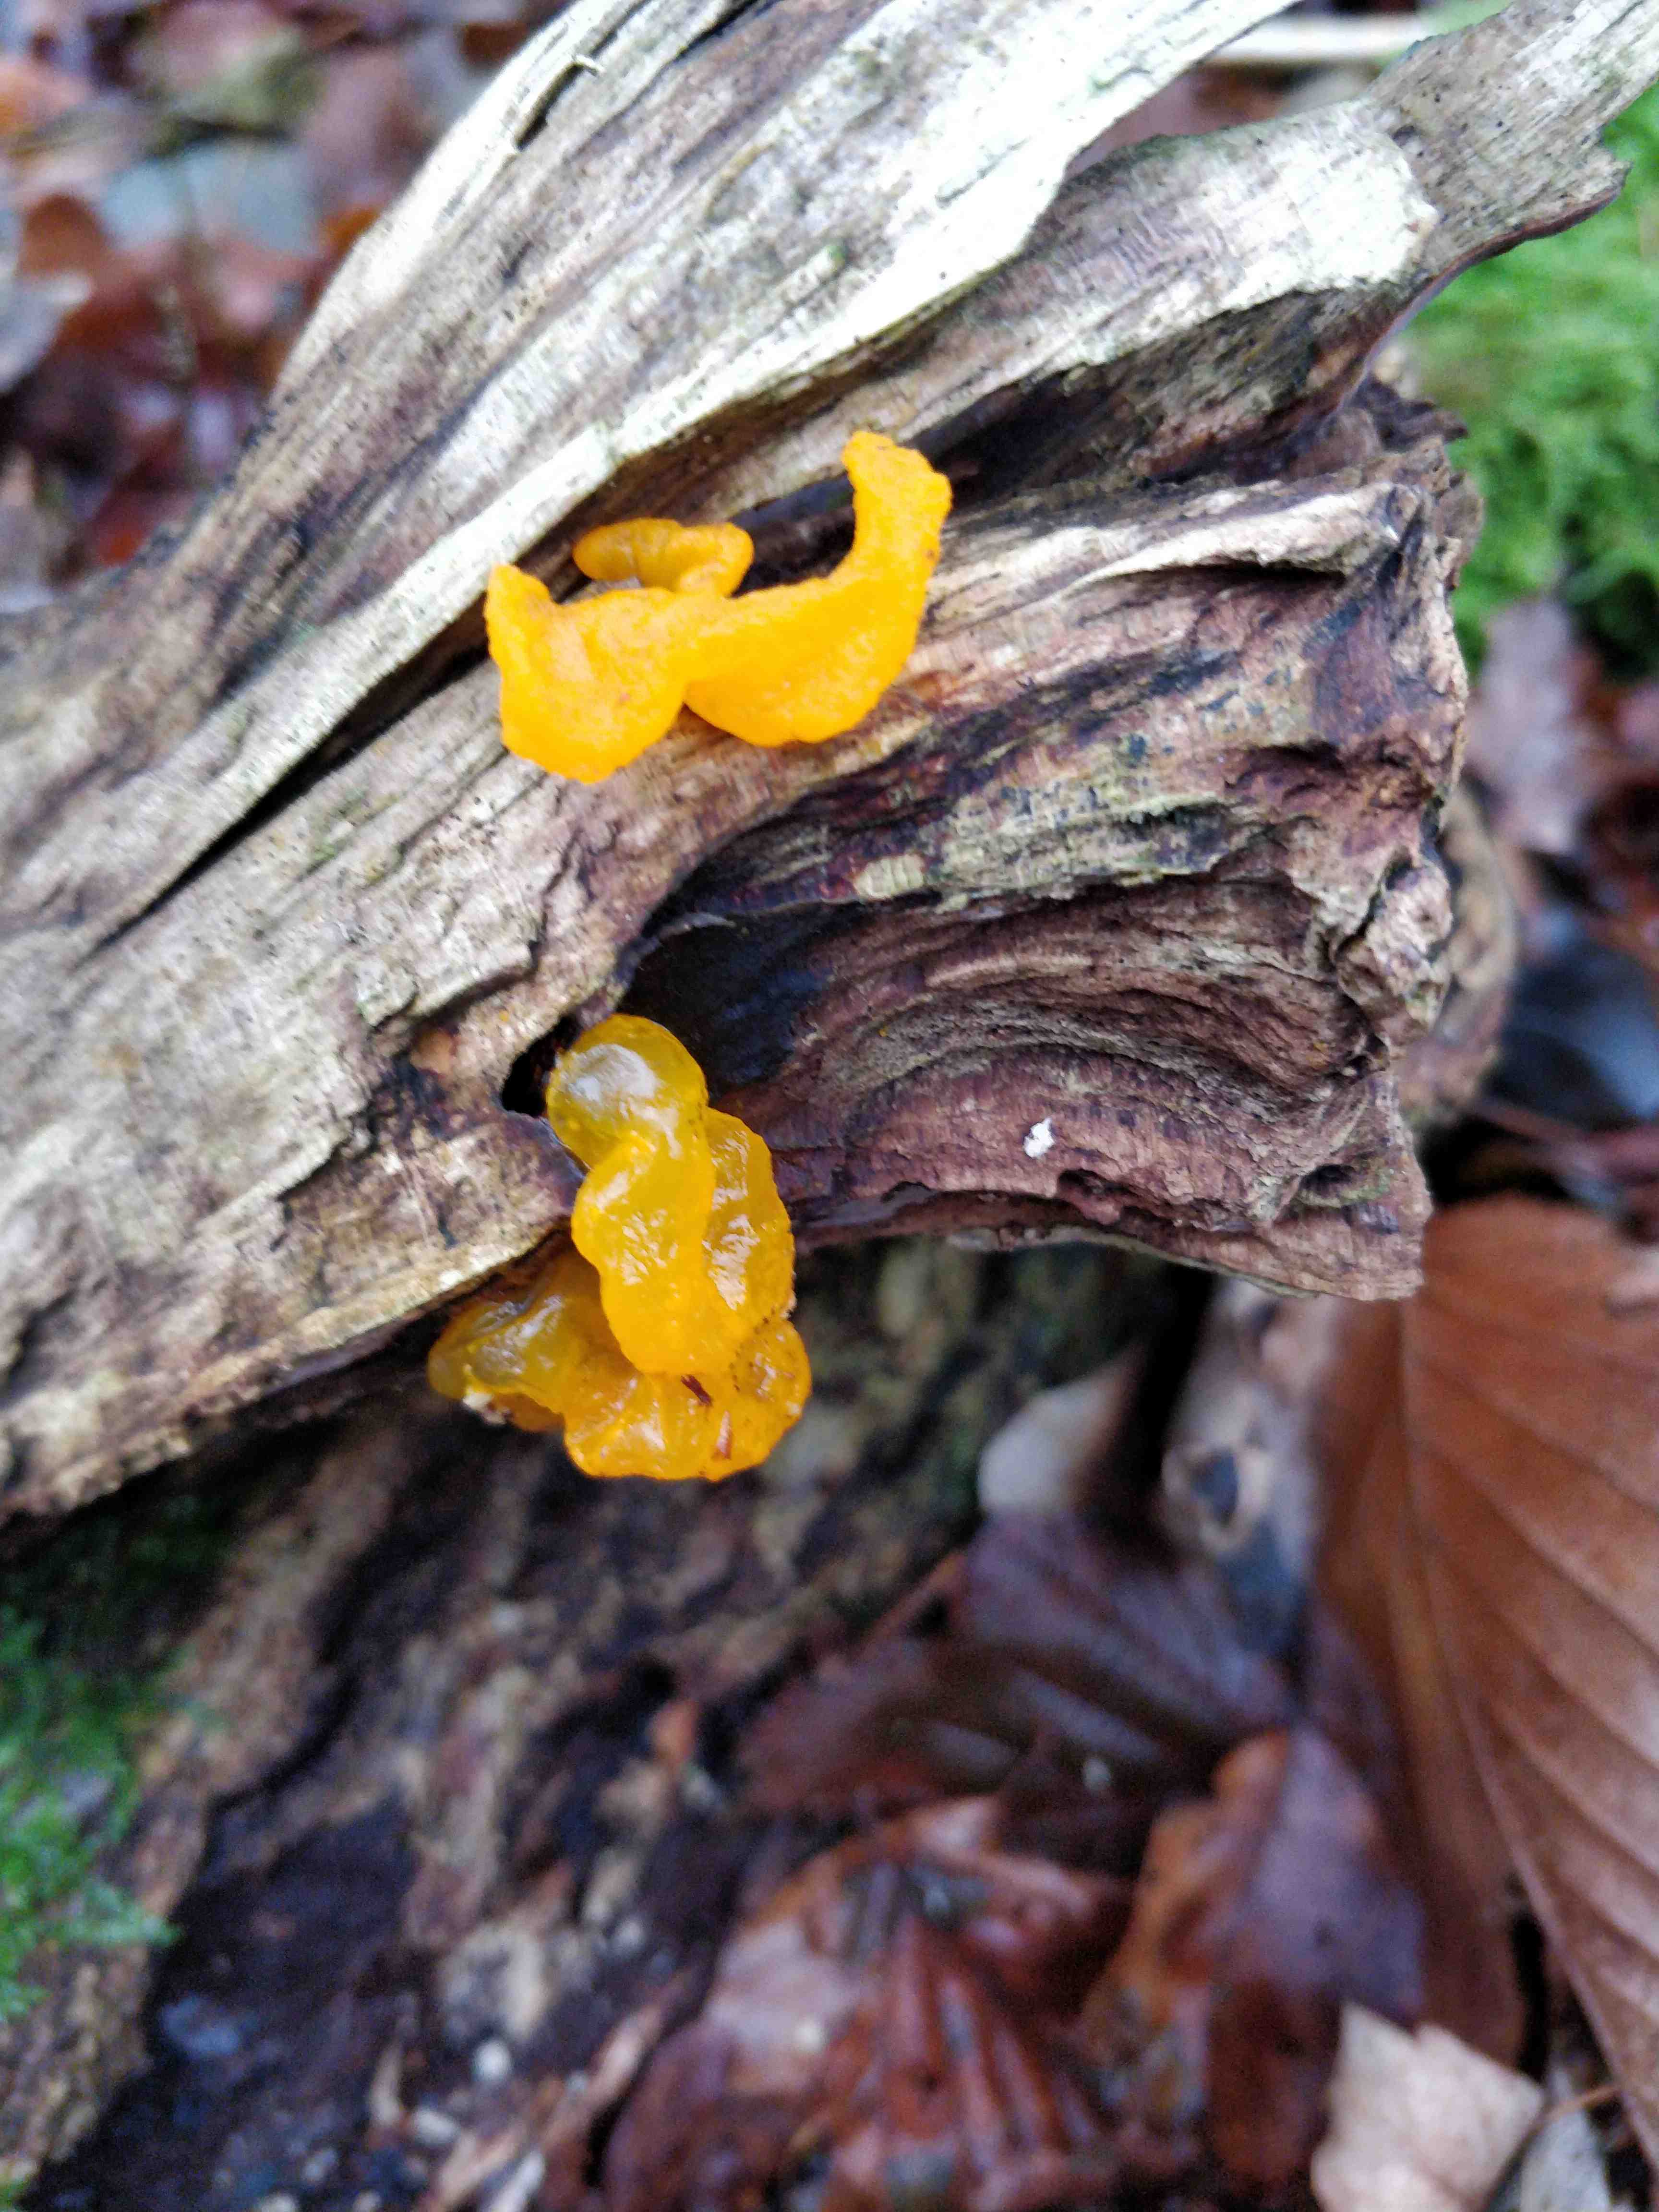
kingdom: Fungi
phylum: Basidiomycota
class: Tremellomycetes
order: Tremellales
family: Tremellaceae
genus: Tremella
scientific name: Tremella mesenterica
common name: gul bævresvamp
